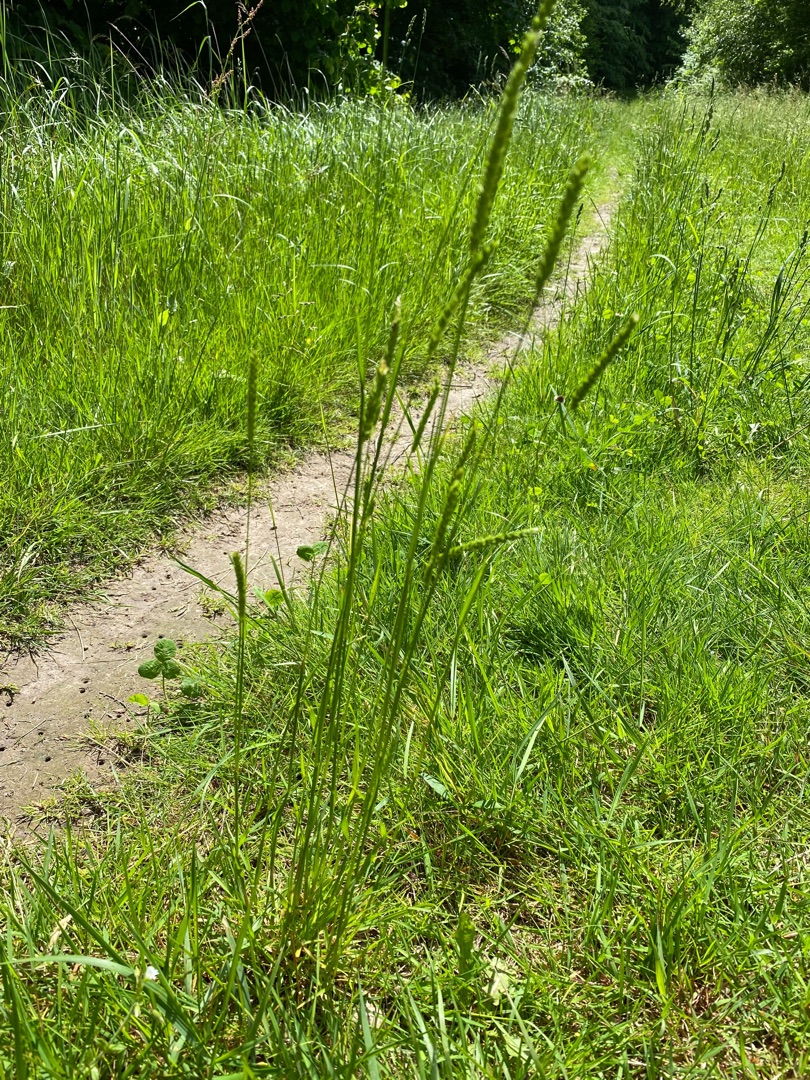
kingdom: Plantae
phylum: Tracheophyta
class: Liliopsida
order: Poales
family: Poaceae
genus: Cynosurus
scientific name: Cynosurus cristatus
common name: Kamgræs
